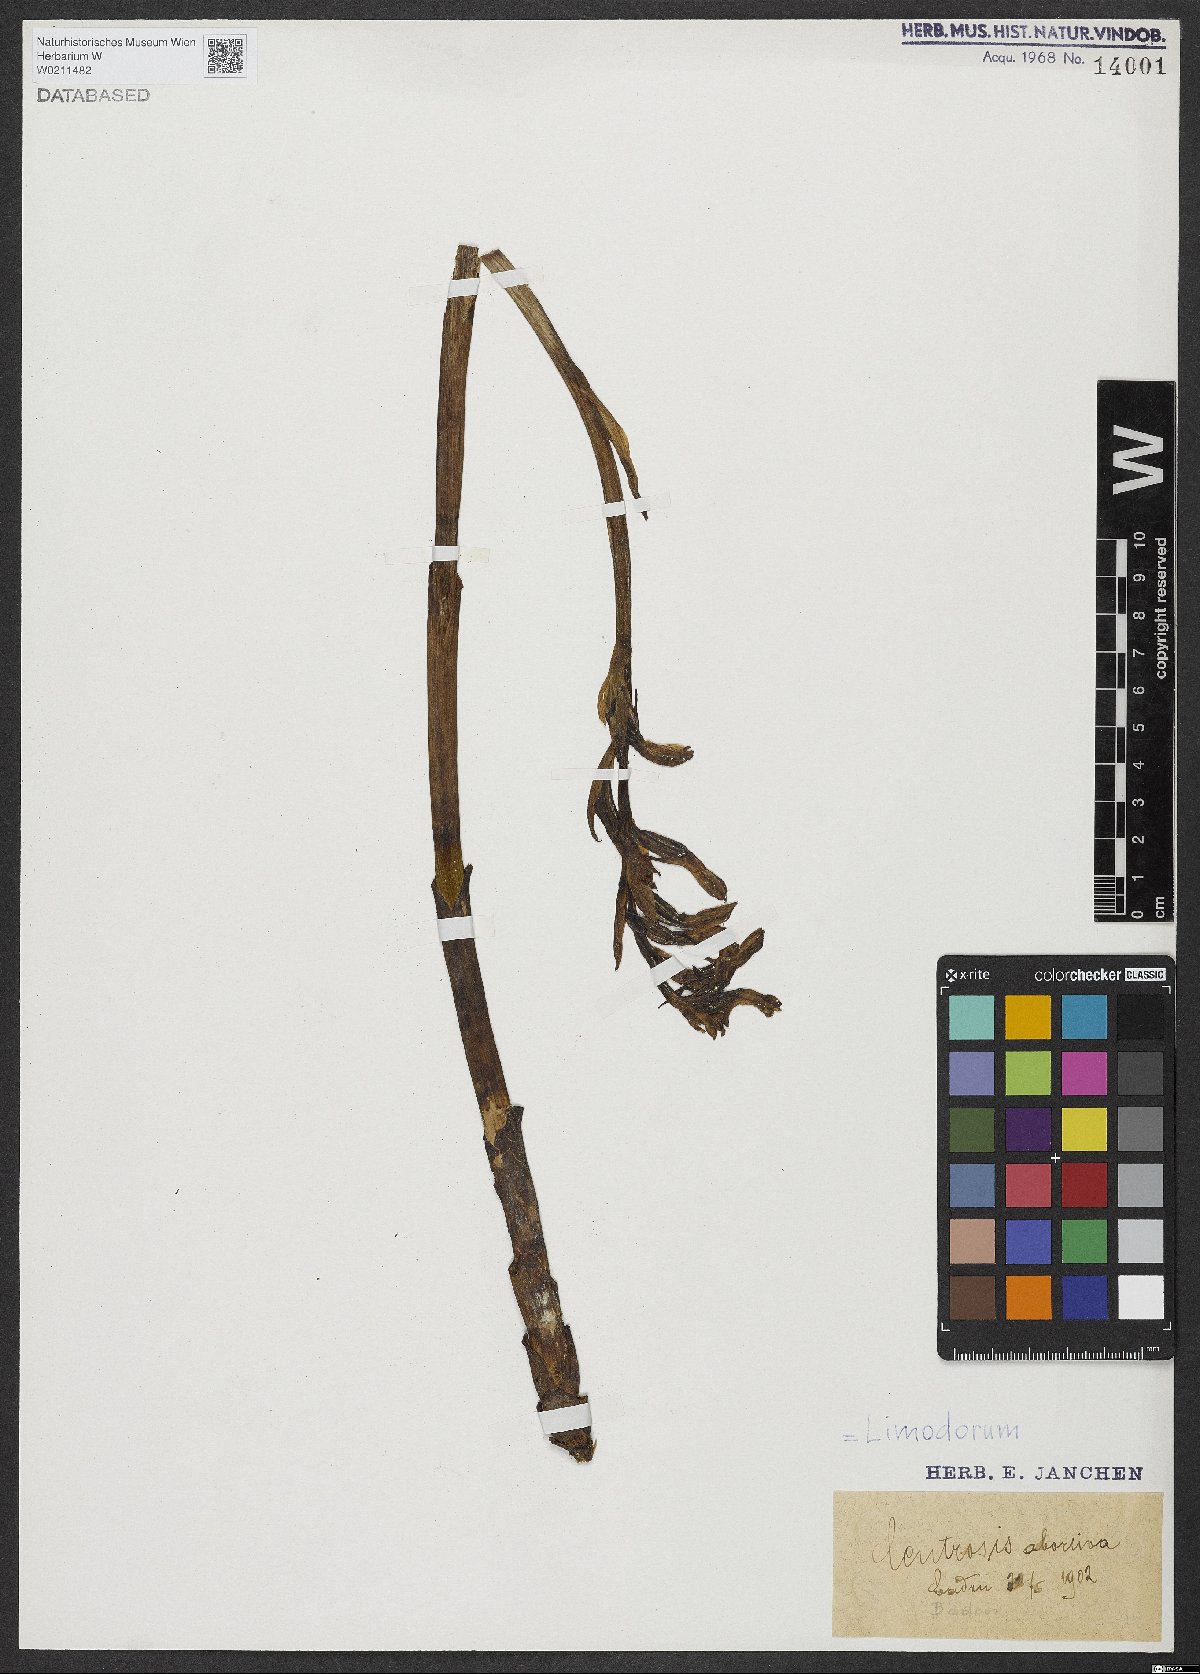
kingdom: Plantae
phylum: Tracheophyta
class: Liliopsida
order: Asparagales
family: Orchidaceae
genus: Limodorum
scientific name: Limodorum abortivum
